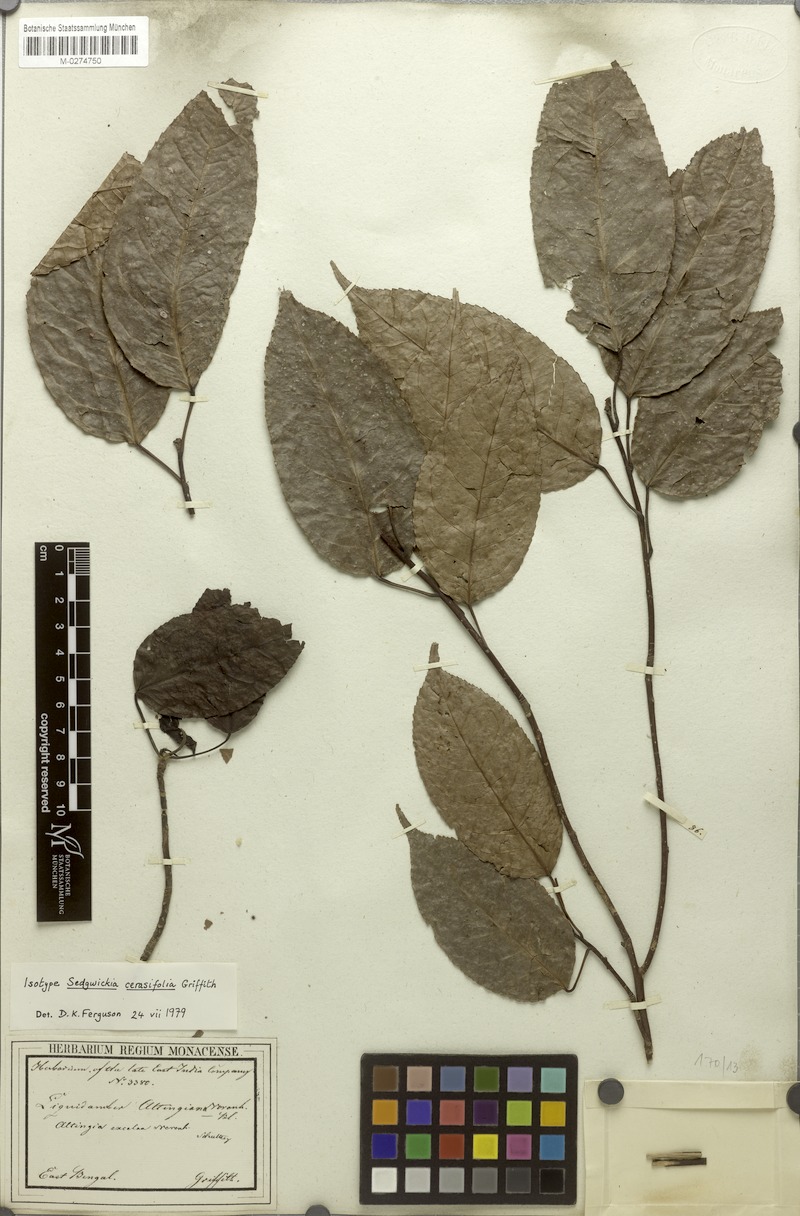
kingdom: Plantae
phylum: Tracheophyta
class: Magnoliopsida
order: Saxifragales
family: Altingiaceae
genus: Liquidambar
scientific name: Liquidambar excelsa
